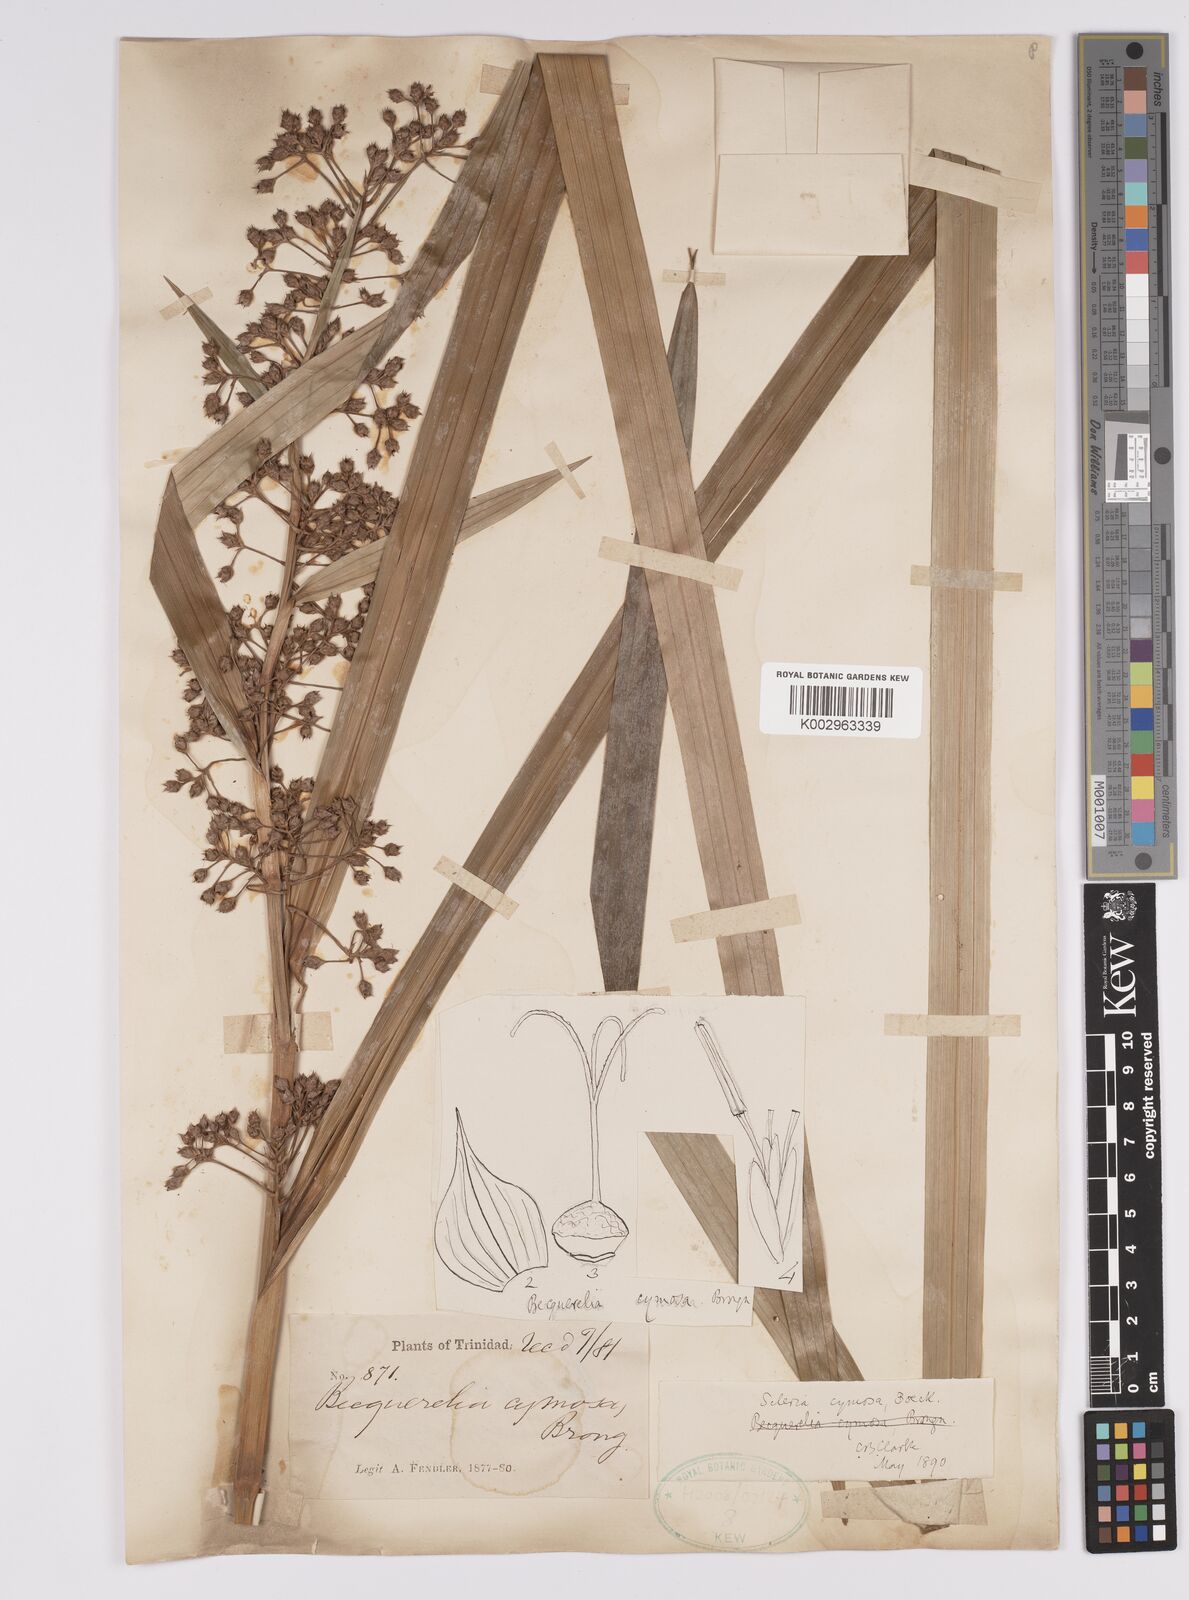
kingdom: Plantae
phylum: Tracheophyta
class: Liliopsida
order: Poales
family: Cyperaceae
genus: Becquerelia
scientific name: Becquerelia cymosa
